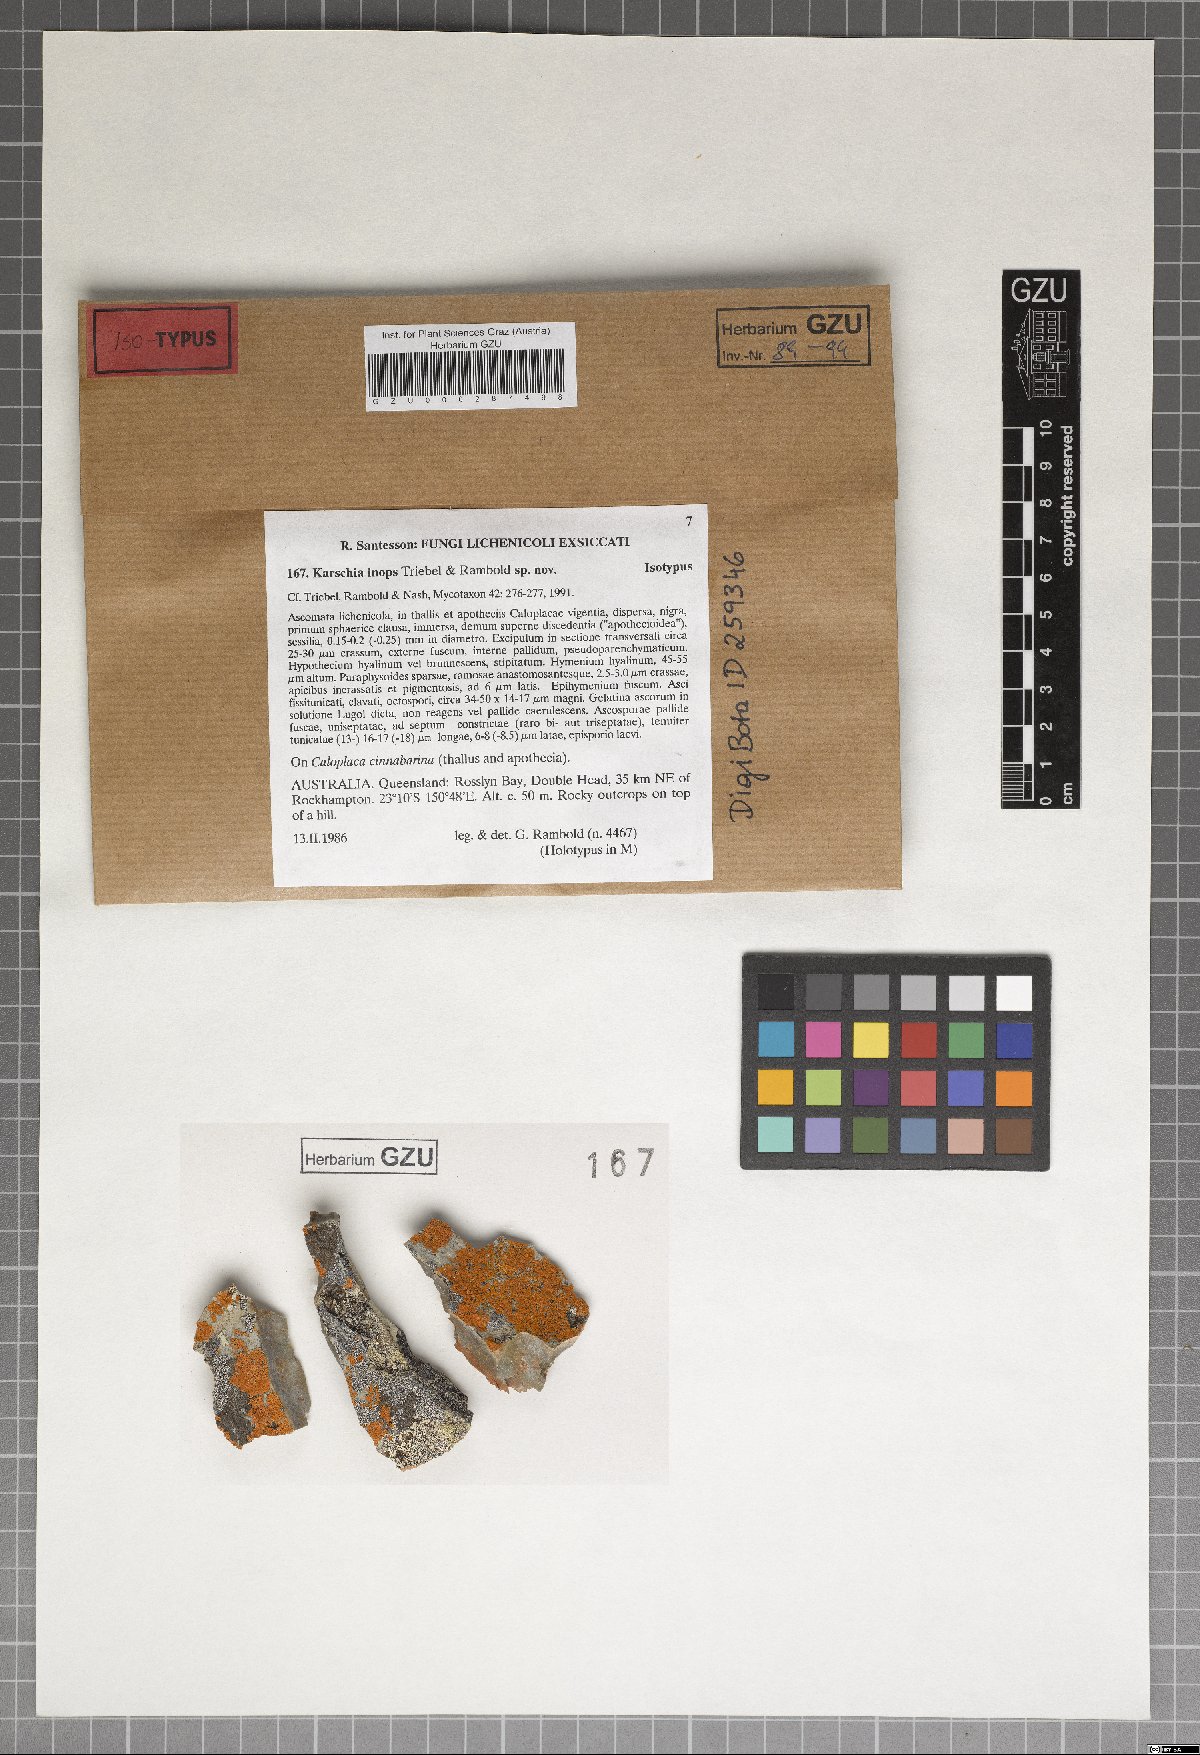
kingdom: Fungi
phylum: Ascomycota
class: Dothideomycetes
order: Dothideales
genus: Buelliella
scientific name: Buelliella inops
